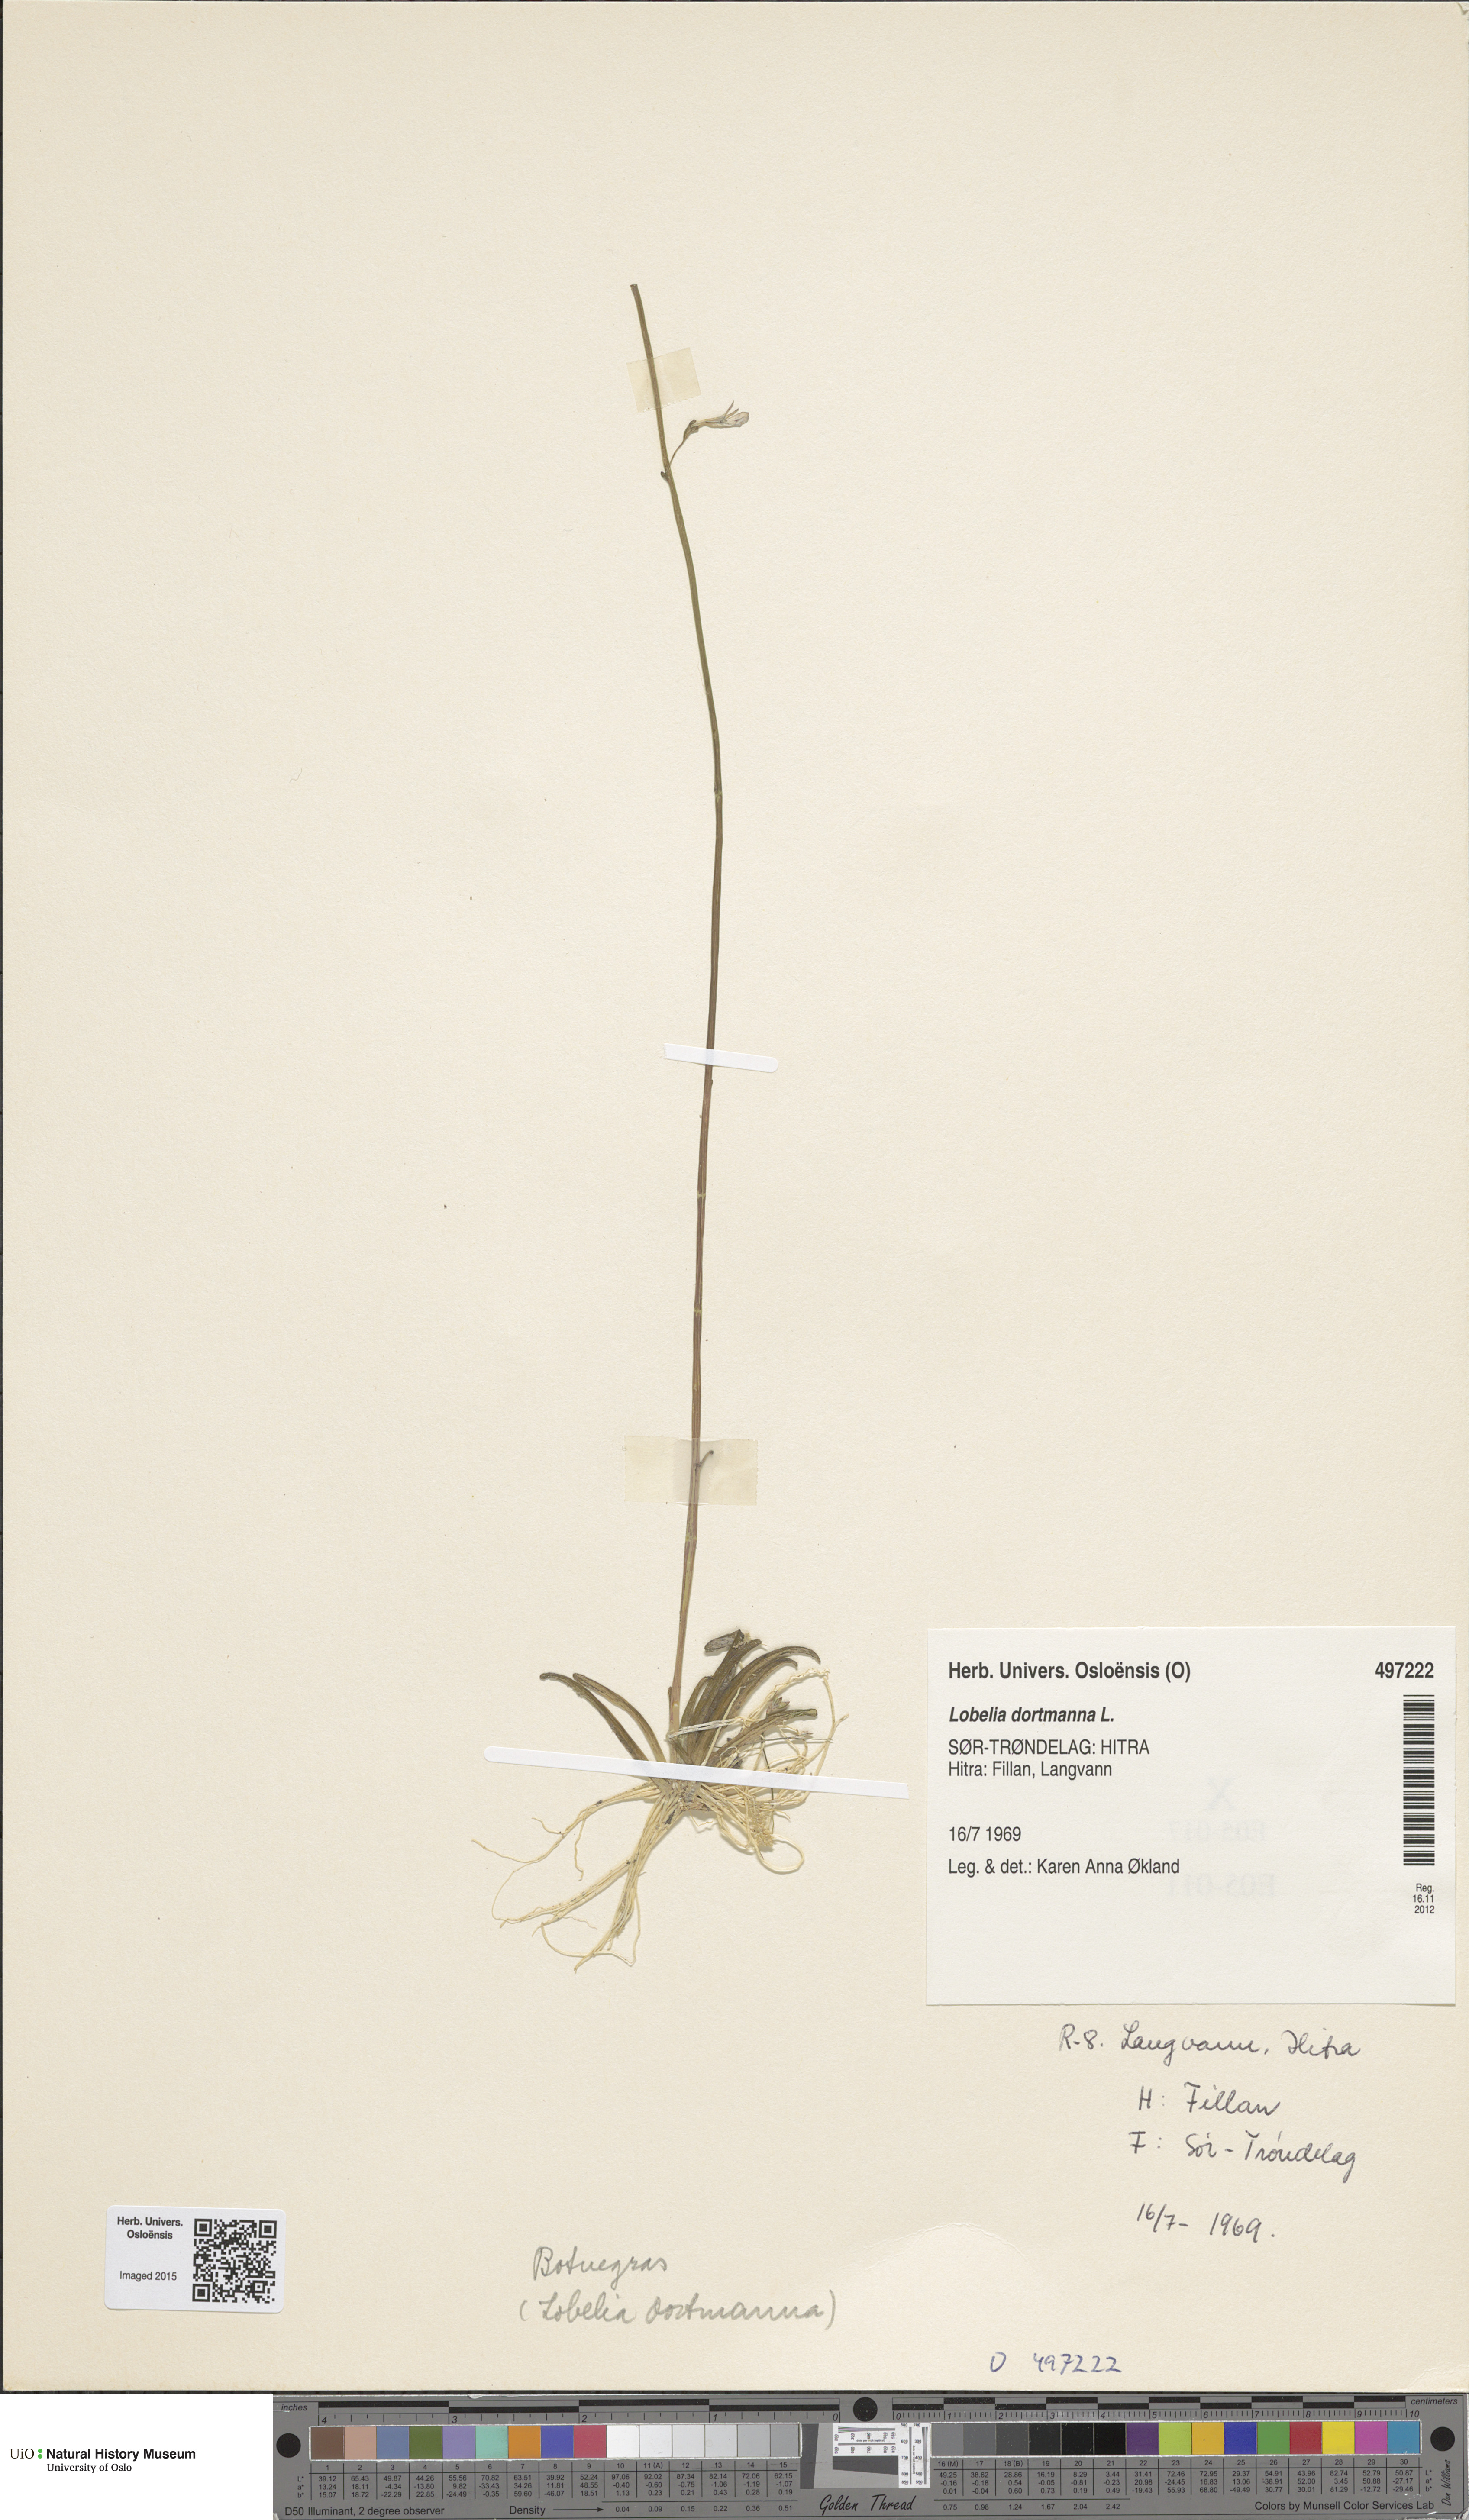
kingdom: Plantae
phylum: Tracheophyta
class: Magnoliopsida
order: Asterales
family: Campanulaceae
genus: Lobelia
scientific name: Lobelia dortmanna
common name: Water lobelia
